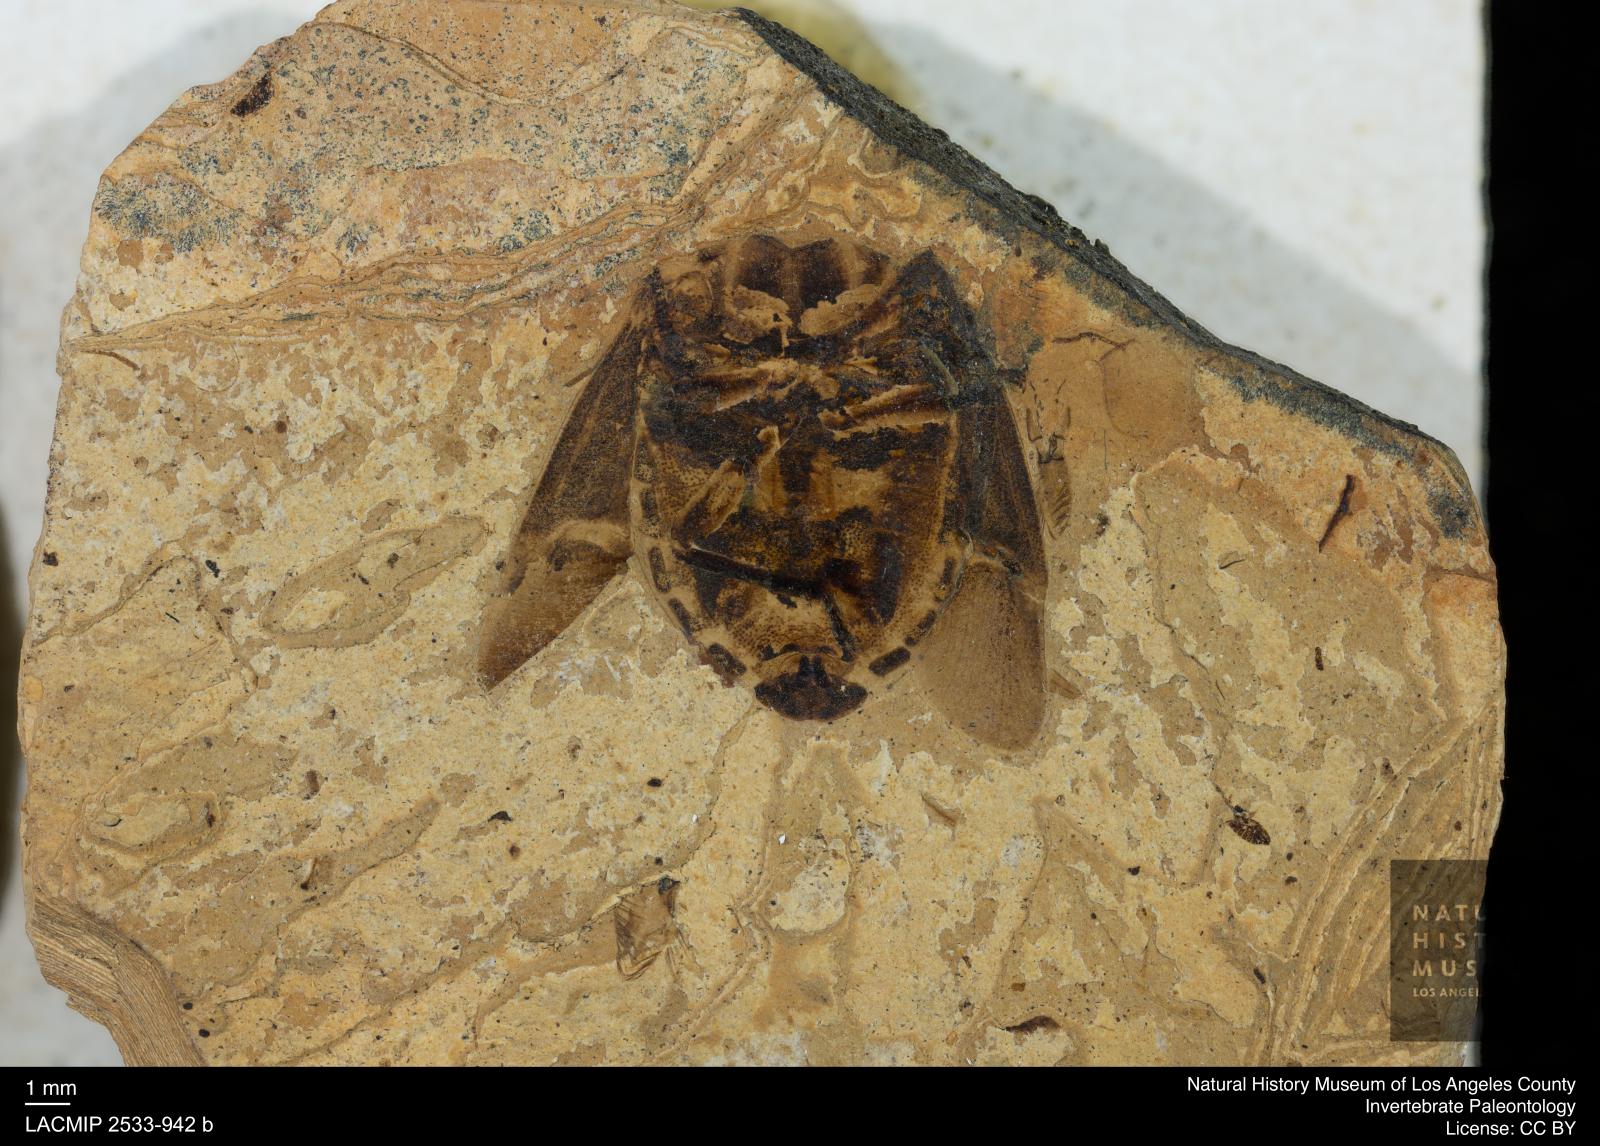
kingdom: Animalia
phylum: Arthropoda
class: Insecta
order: Hemiptera
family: Scutelleridae
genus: Poecilocoris
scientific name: Poecilocoris rottensis
